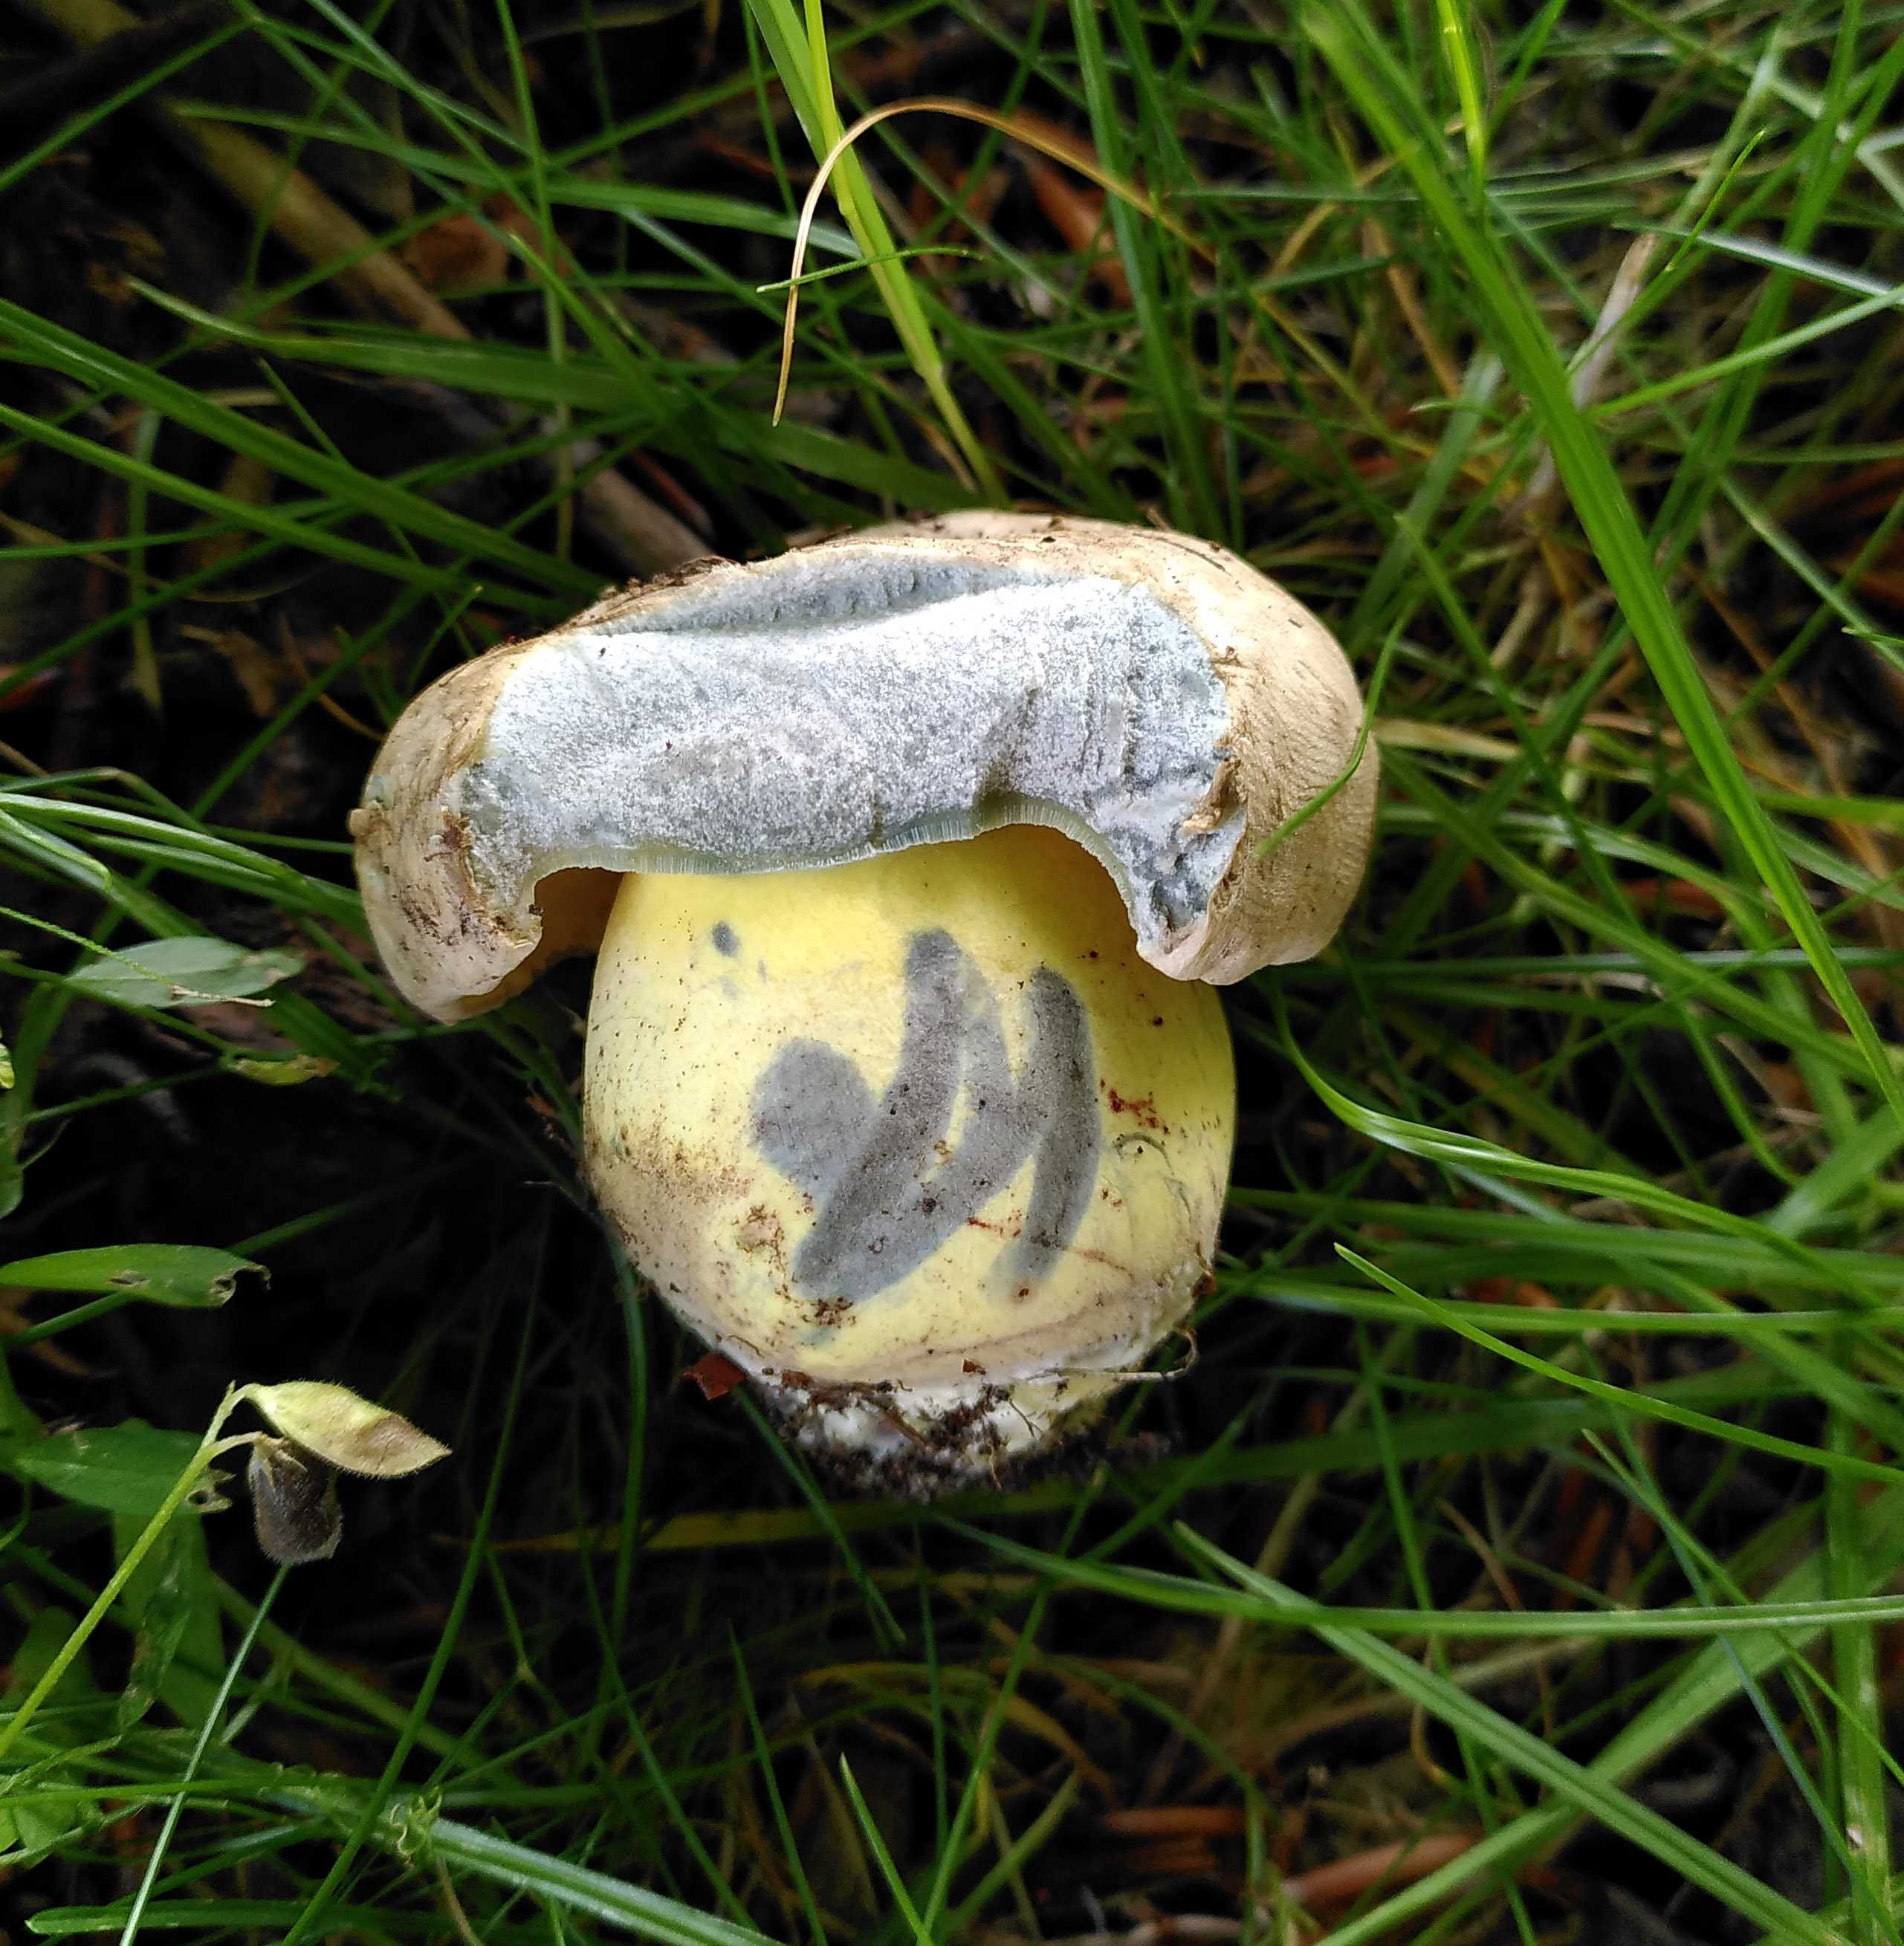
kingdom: Fungi
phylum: Basidiomycota
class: Agaricomycetes
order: Boletales
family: Boletaceae
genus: Caloboletus
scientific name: Caloboletus radicans
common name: rod-rørhat
